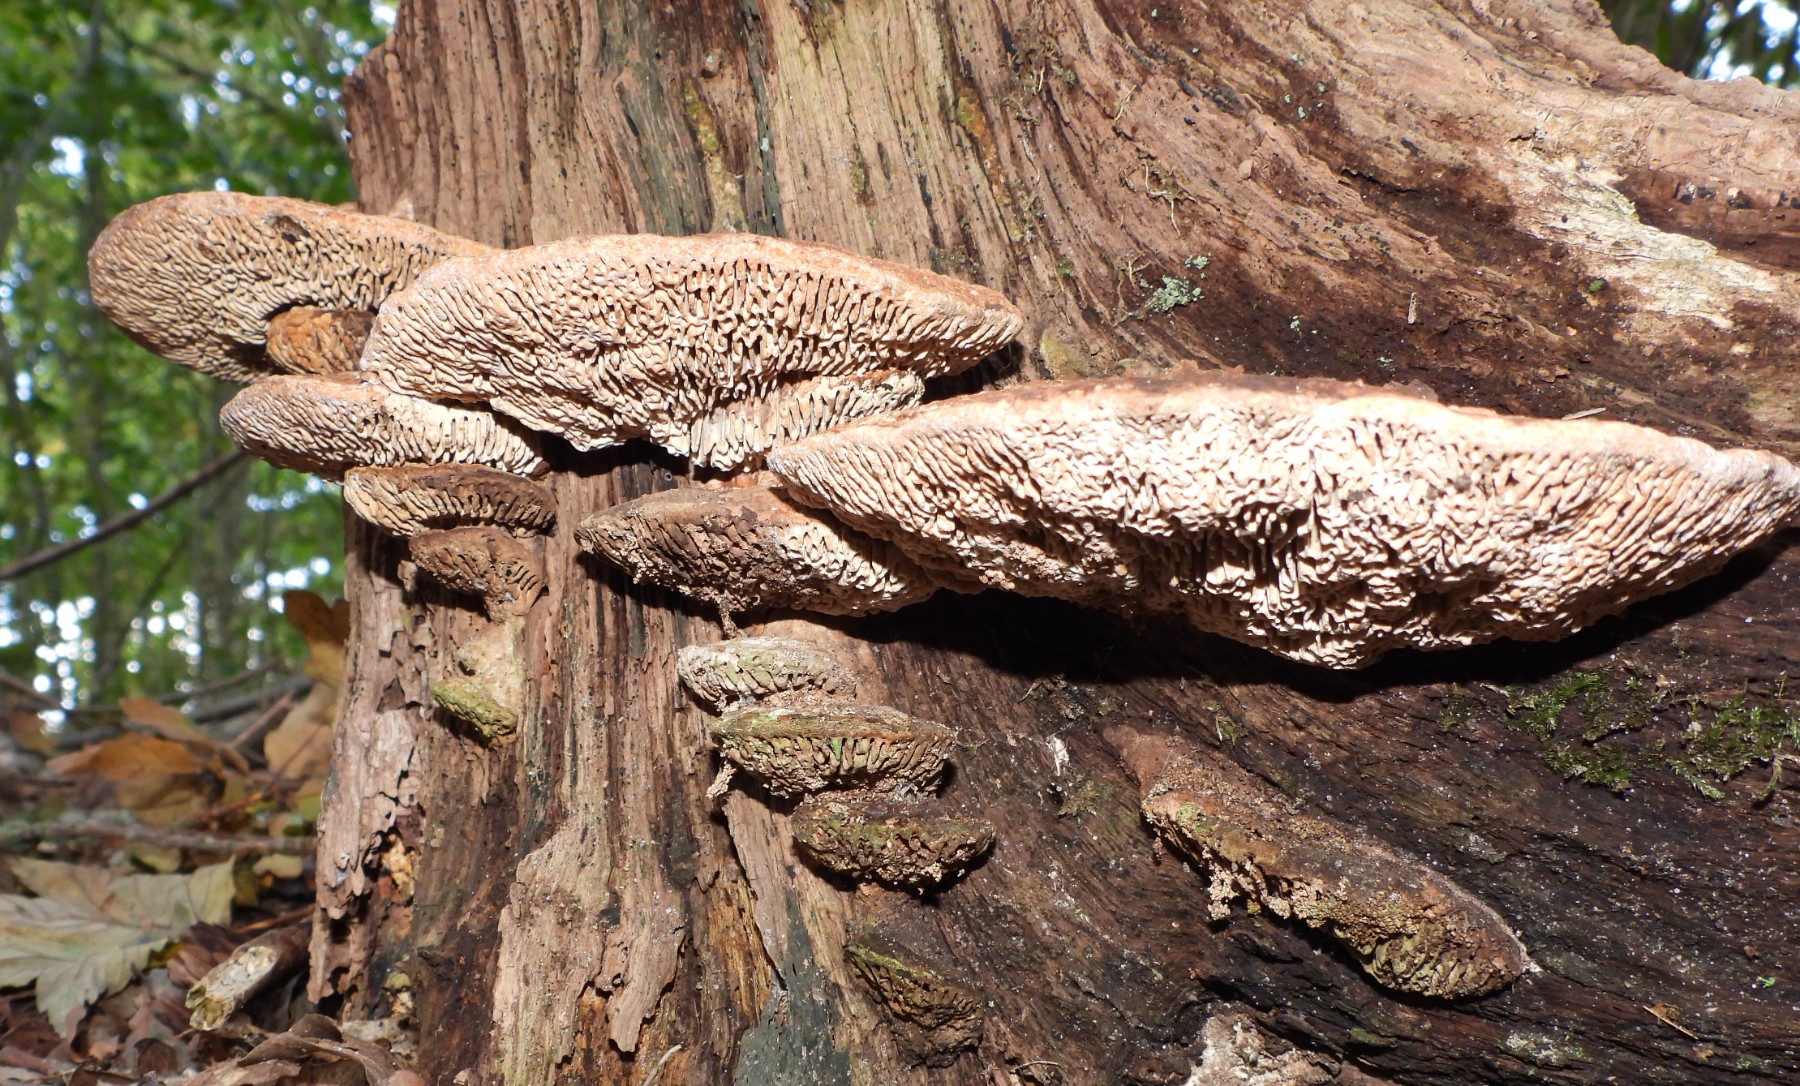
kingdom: Fungi
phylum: Basidiomycota
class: Agaricomycetes
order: Polyporales
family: Fomitopsidaceae
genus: Daedalea
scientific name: Daedalea quercina
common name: ege-labyrintsvamp
